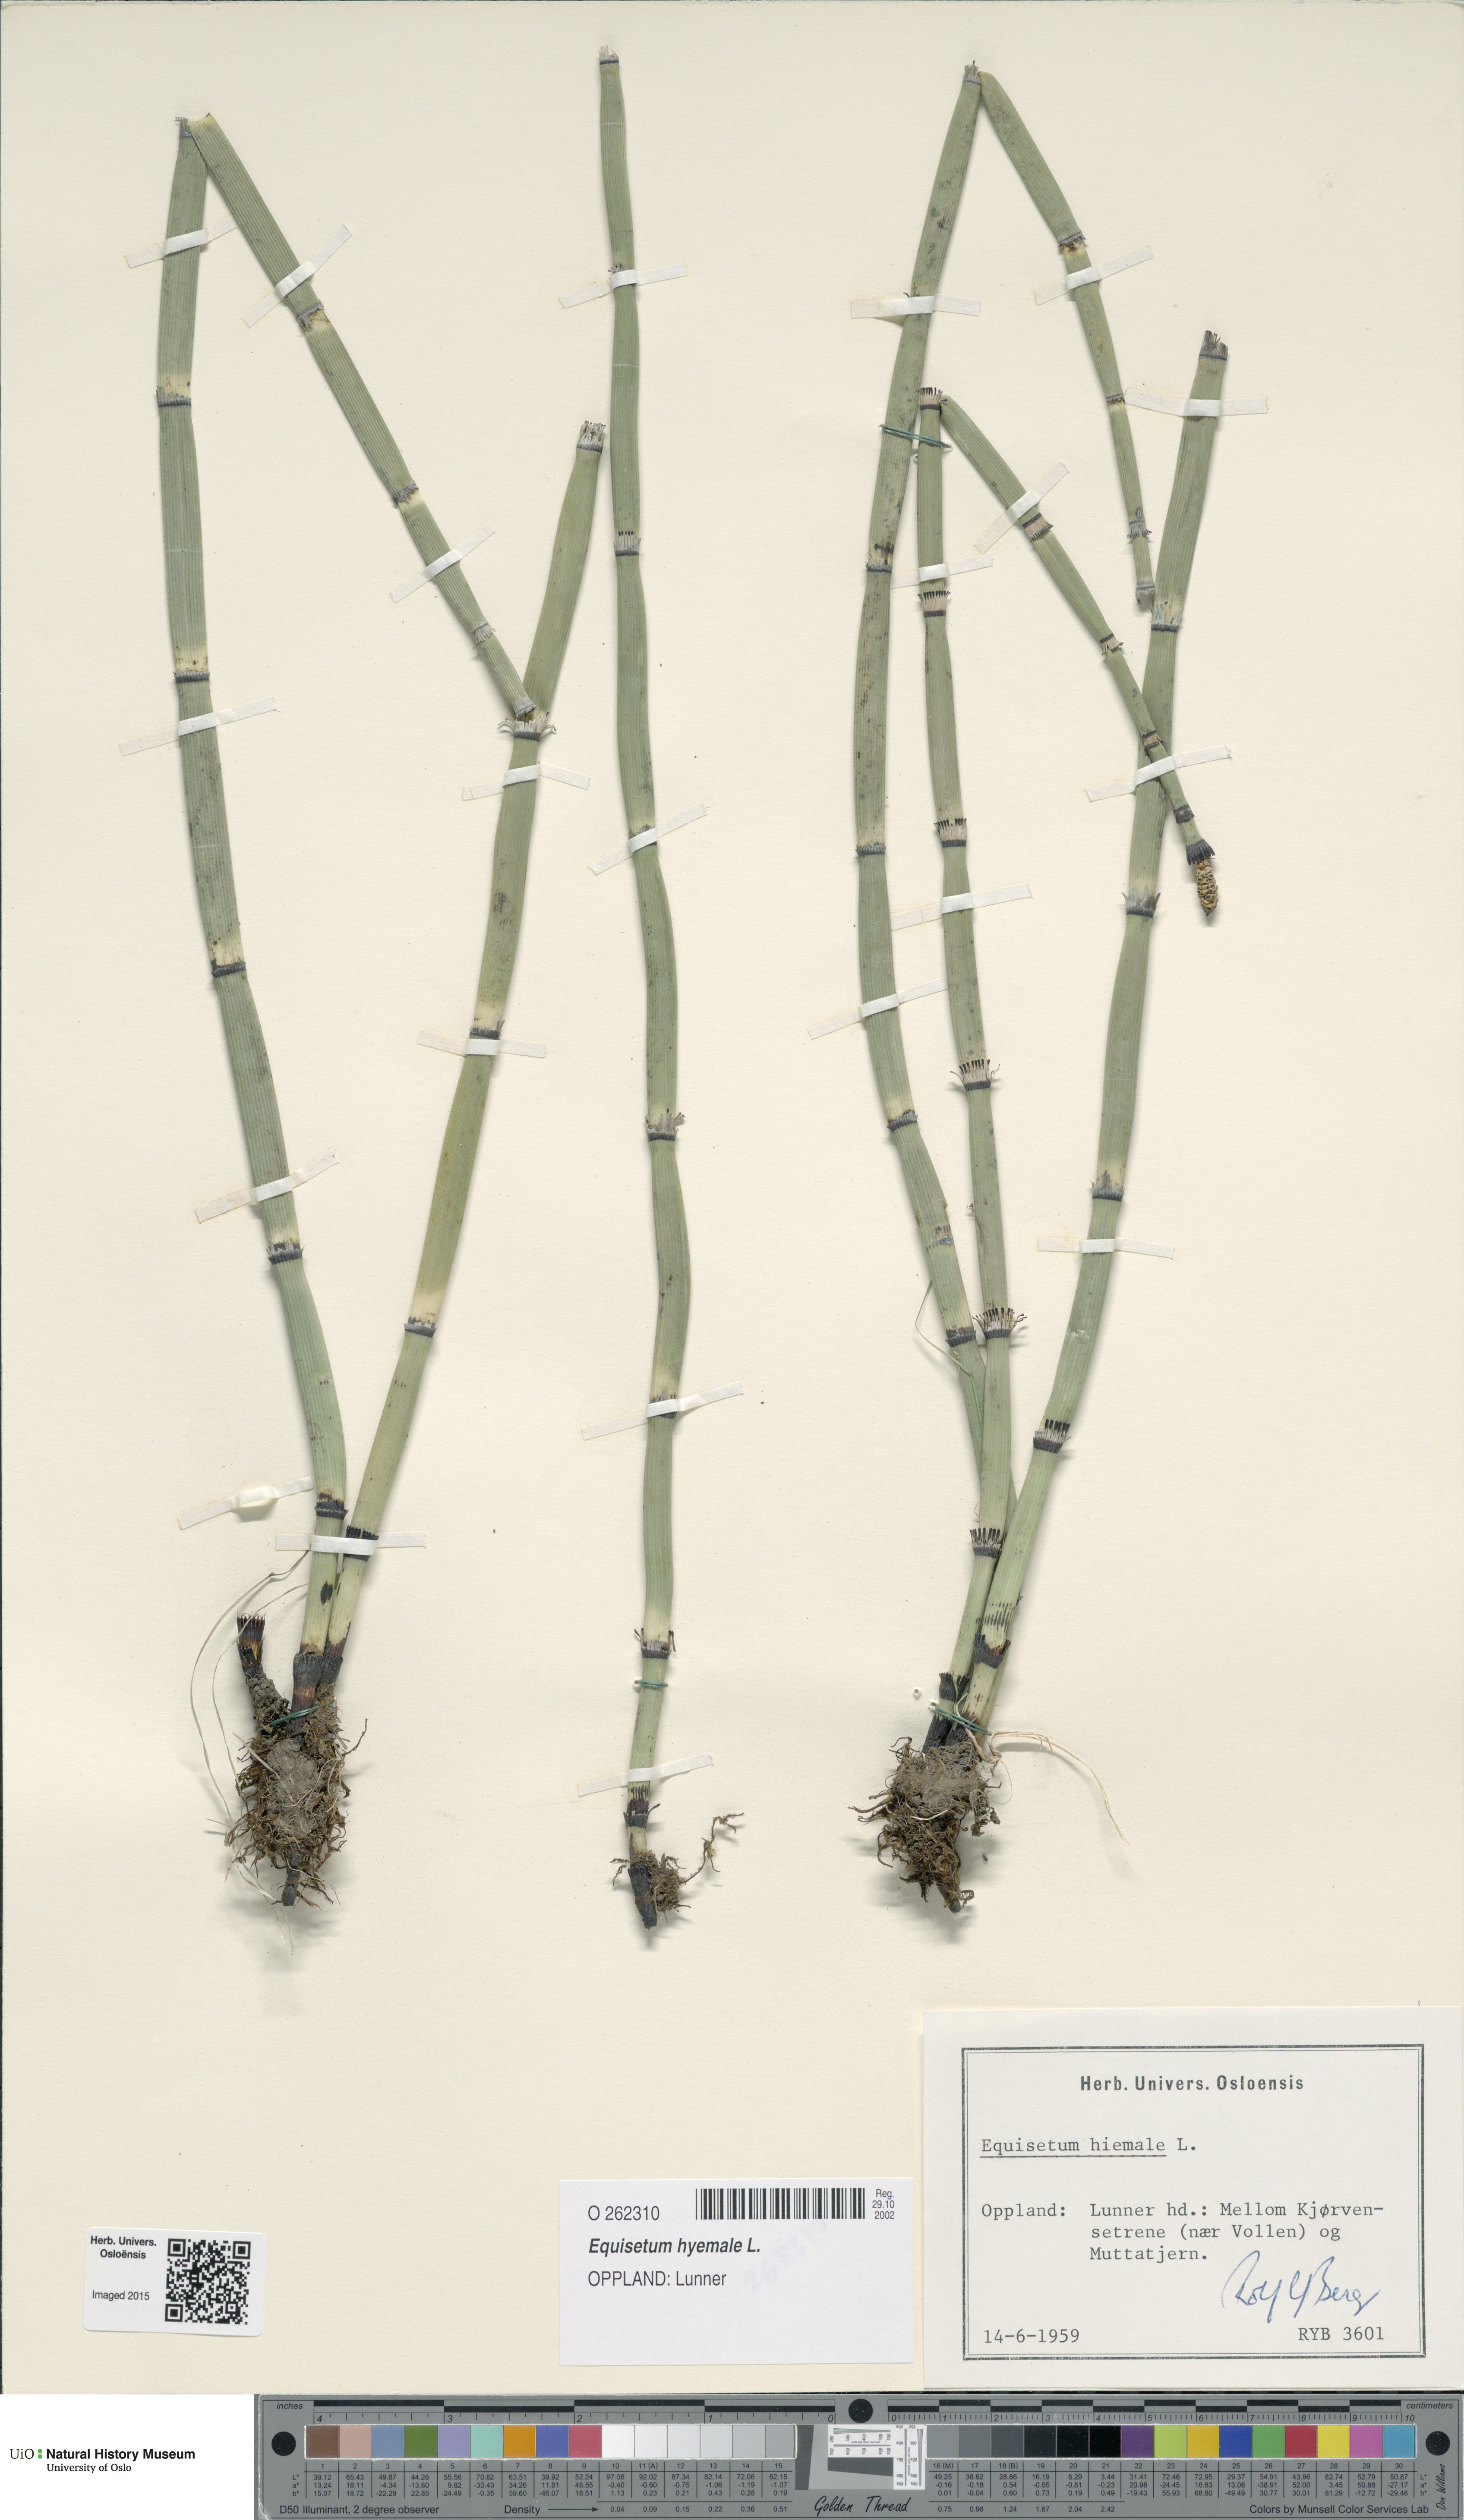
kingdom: Plantae
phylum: Tracheophyta
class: Polypodiopsida
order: Equisetales
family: Equisetaceae
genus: Equisetum
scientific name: Equisetum hyemale
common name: Rough horsetail
